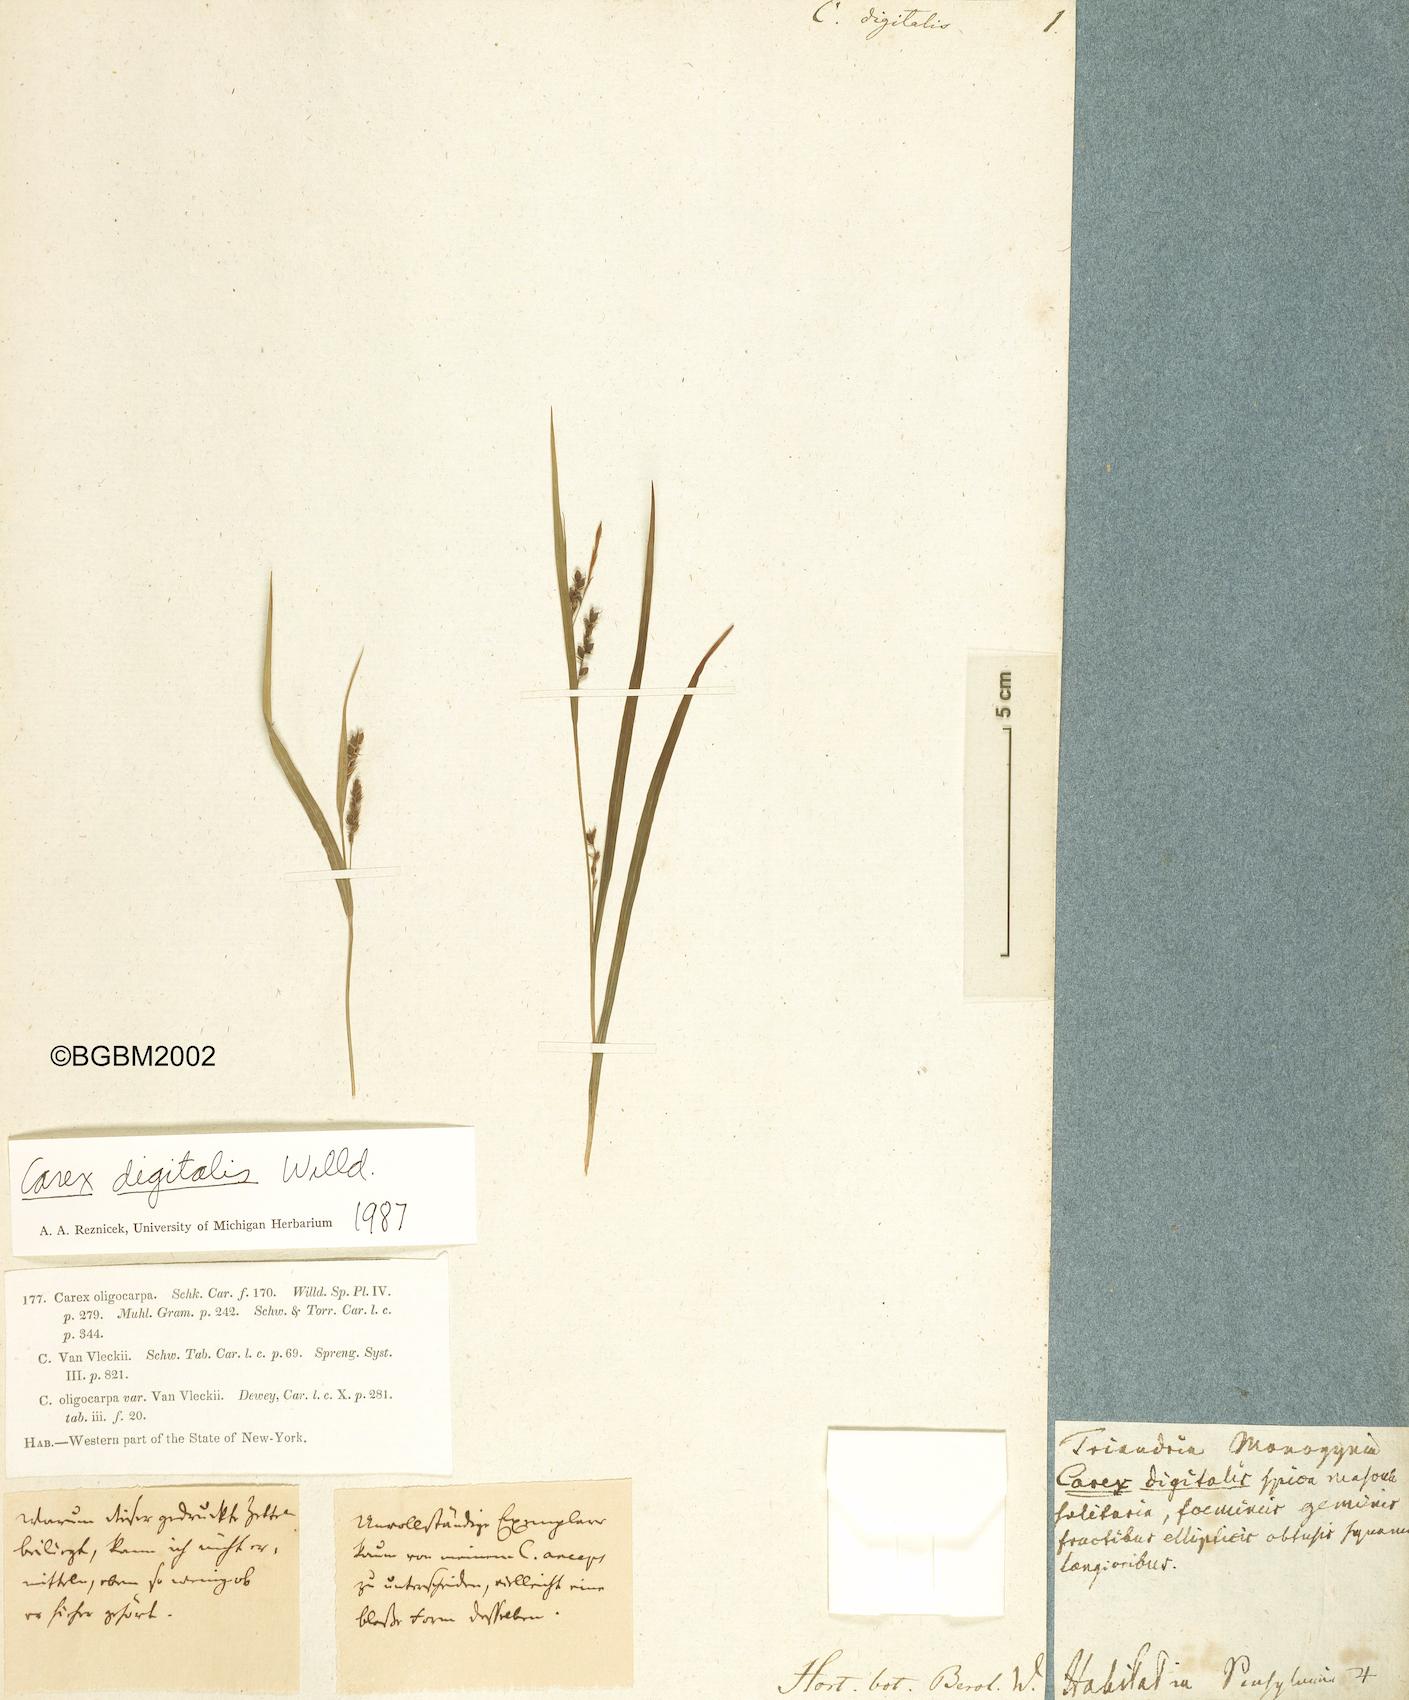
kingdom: Plantae
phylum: Tracheophyta
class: Liliopsida
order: Poales
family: Cyperaceae
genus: Carex
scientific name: Carex digitalis
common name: Slender wood sedge
